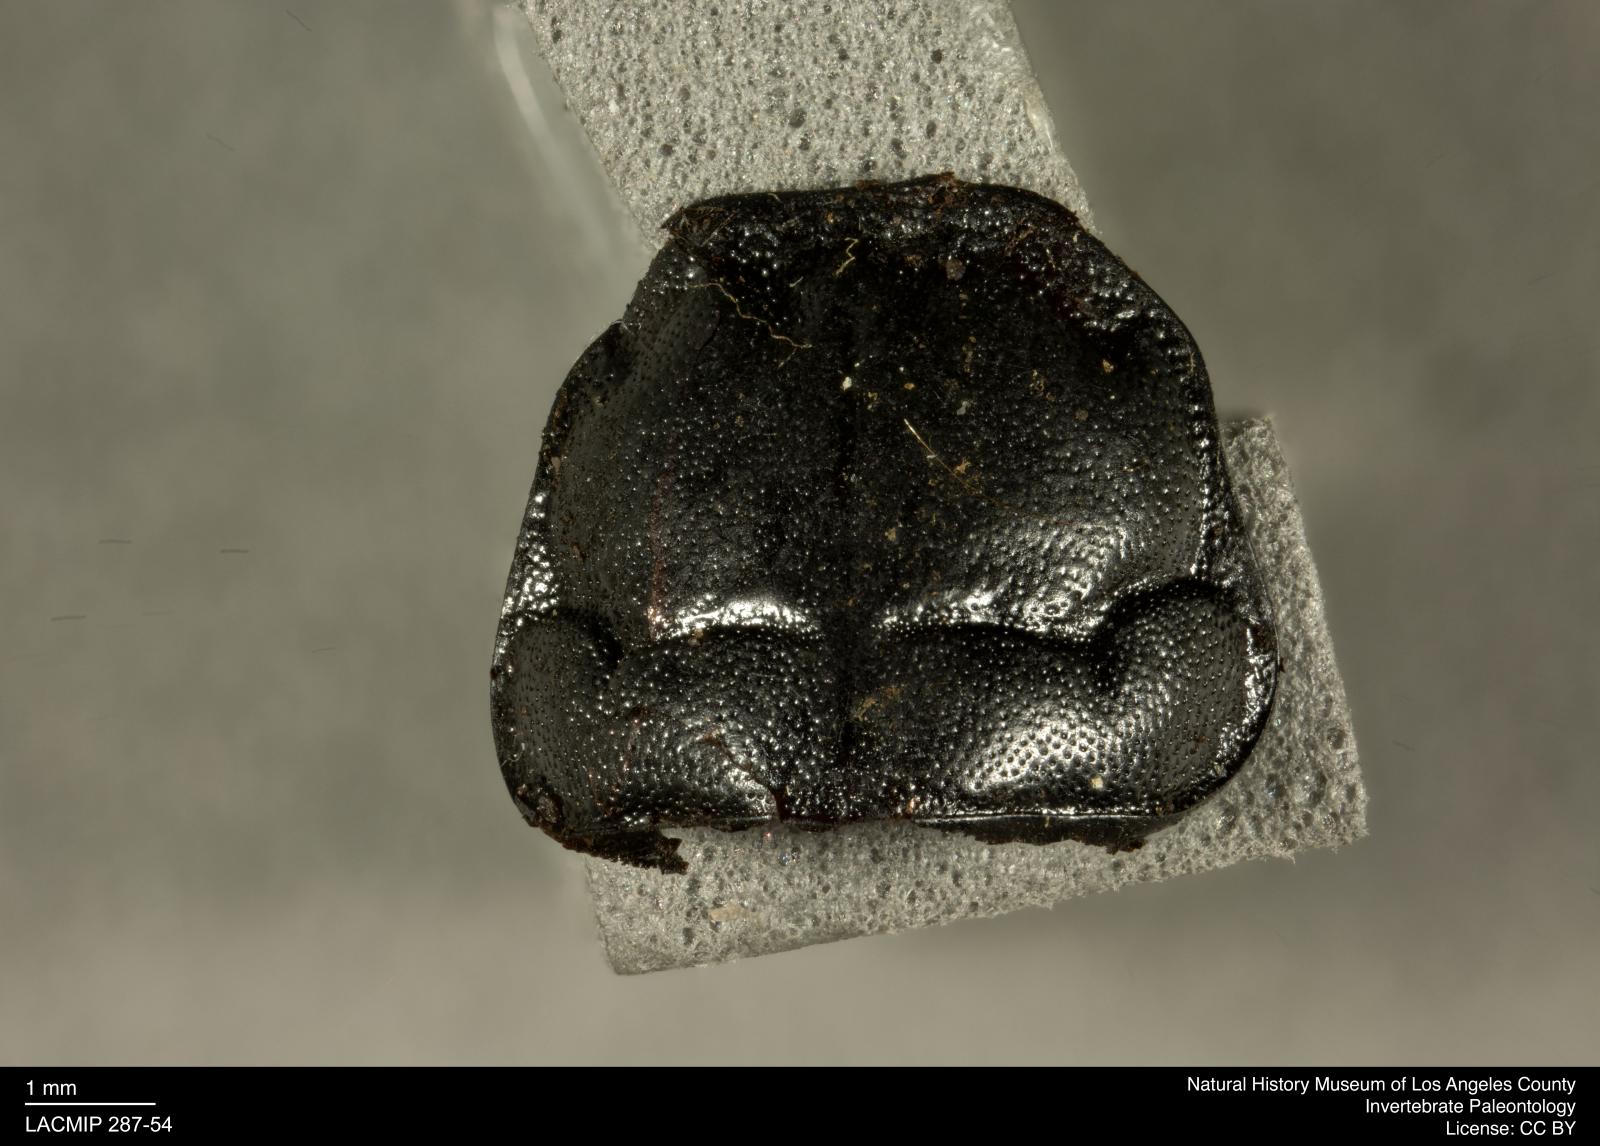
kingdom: Animalia
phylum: Arthropoda
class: Insecta
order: Coleoptera
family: Staphylinidae
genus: Nicrophorus
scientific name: Nicrophorus marginatus
